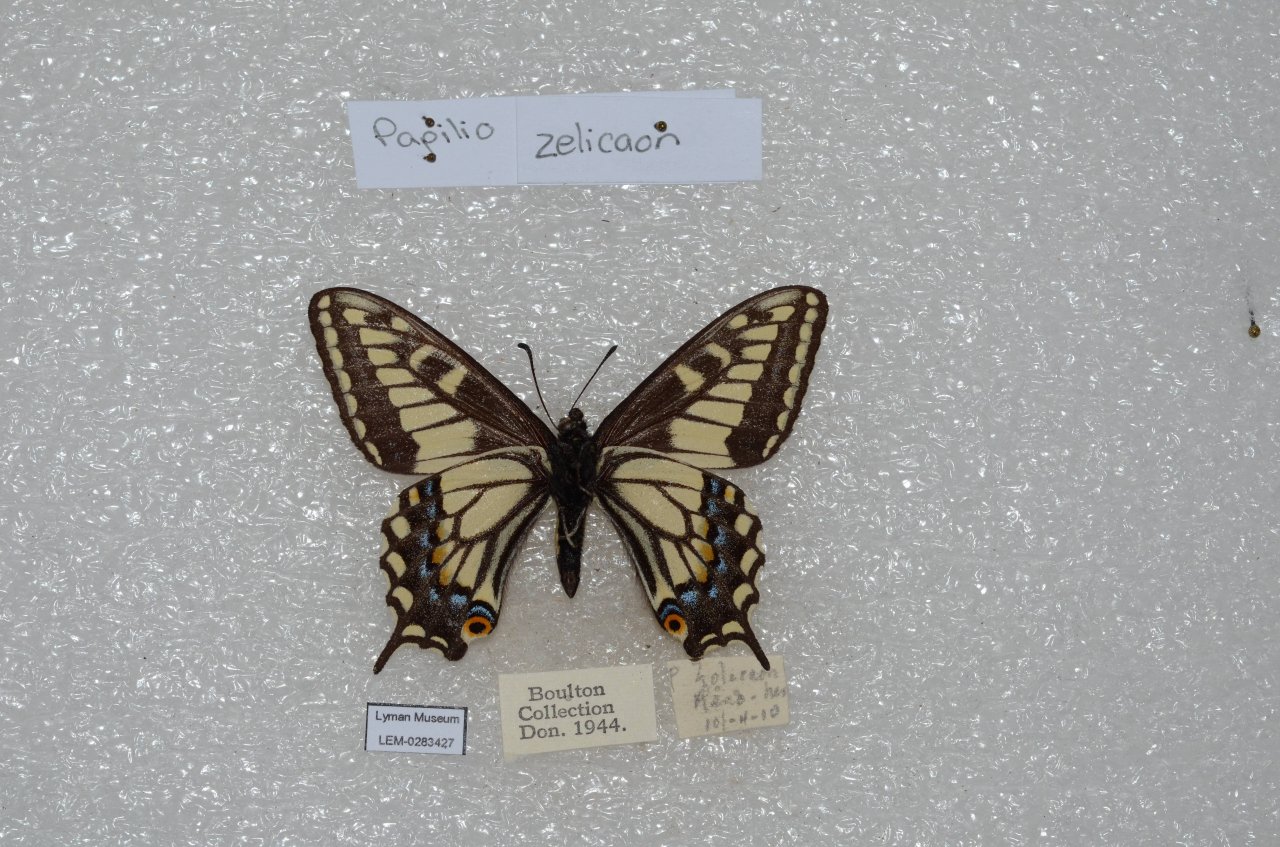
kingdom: Animalia
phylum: Arthropoda
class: Insecta
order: Lepidoptera
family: Papilionidae
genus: Papilio
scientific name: Papilio zelicaon
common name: Anise Swallowtail
